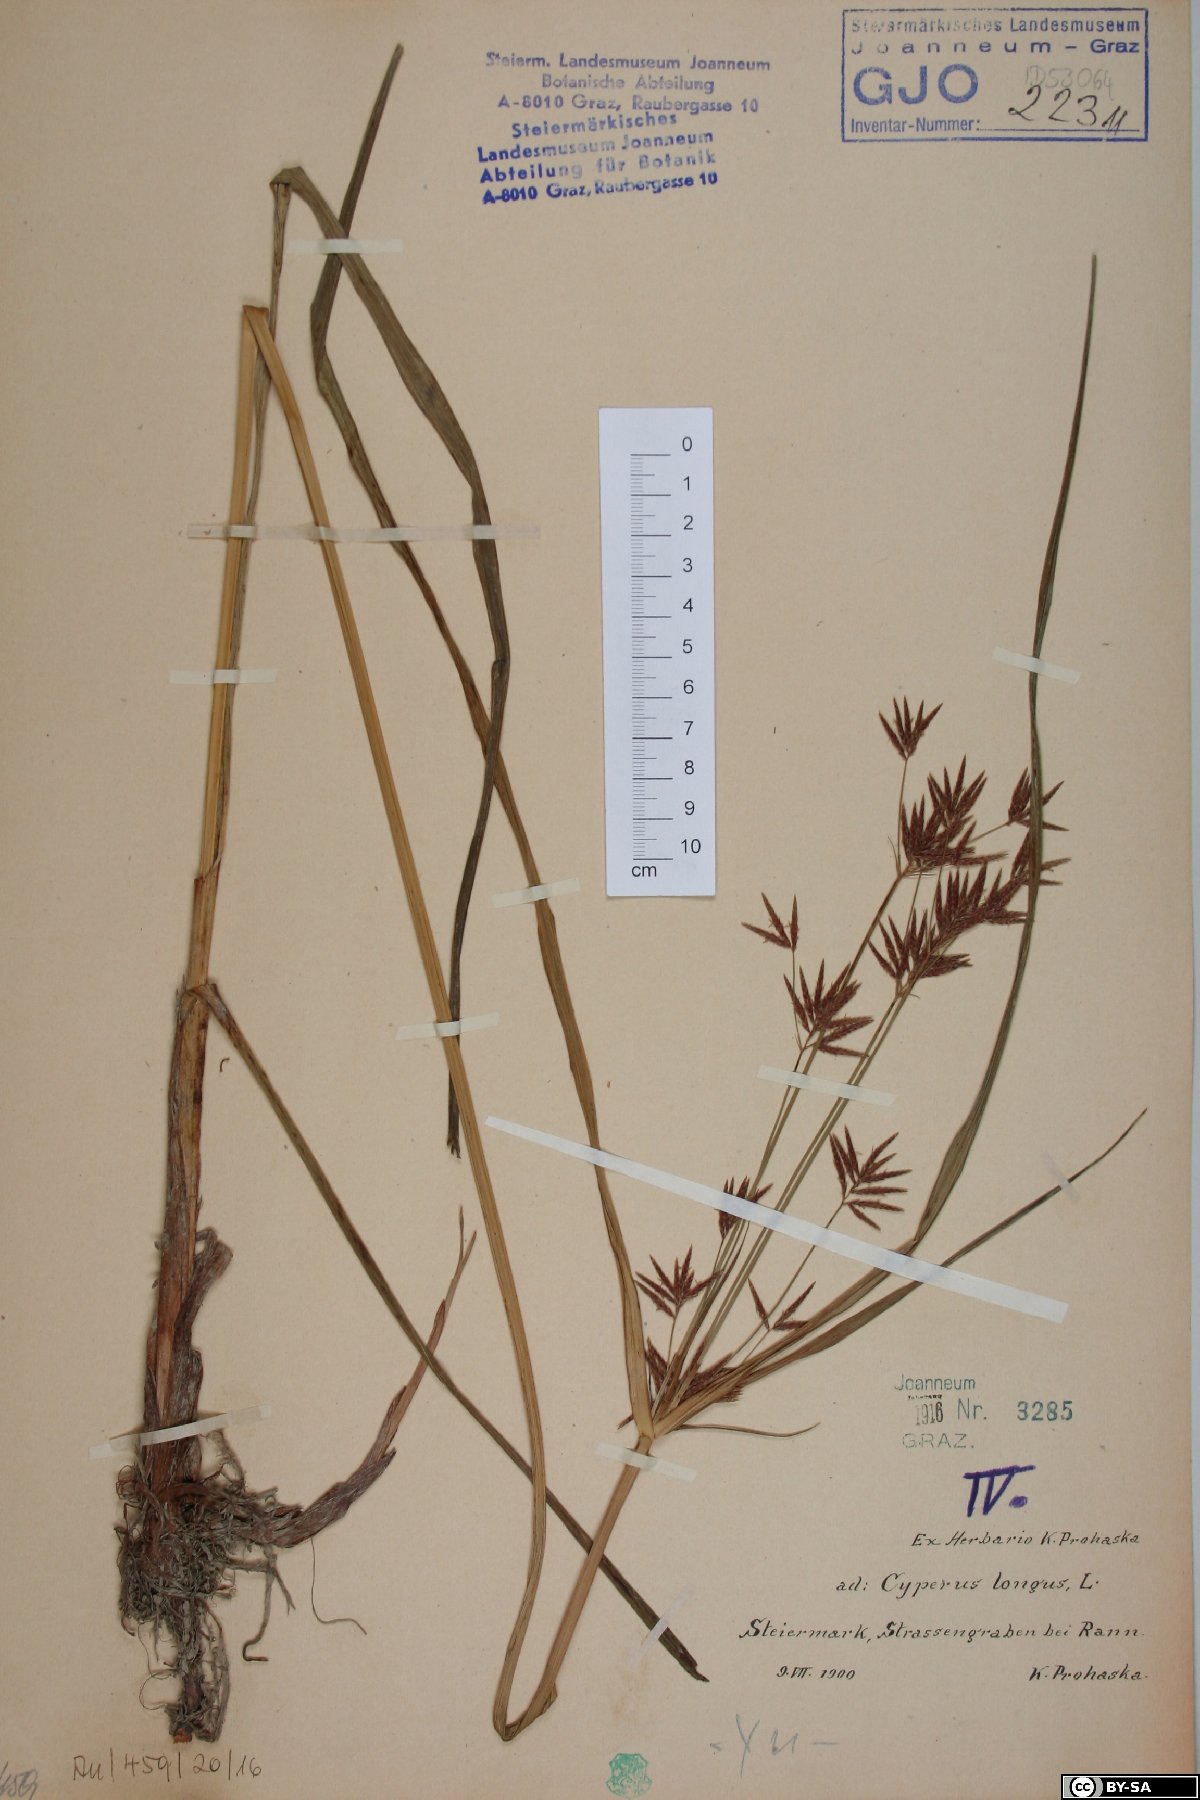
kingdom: Plantae
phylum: Tracheophyta
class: Liliopsida
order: Poales
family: Cyperaceae
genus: Cyperus
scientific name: Cyperus longus
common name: Galingale
